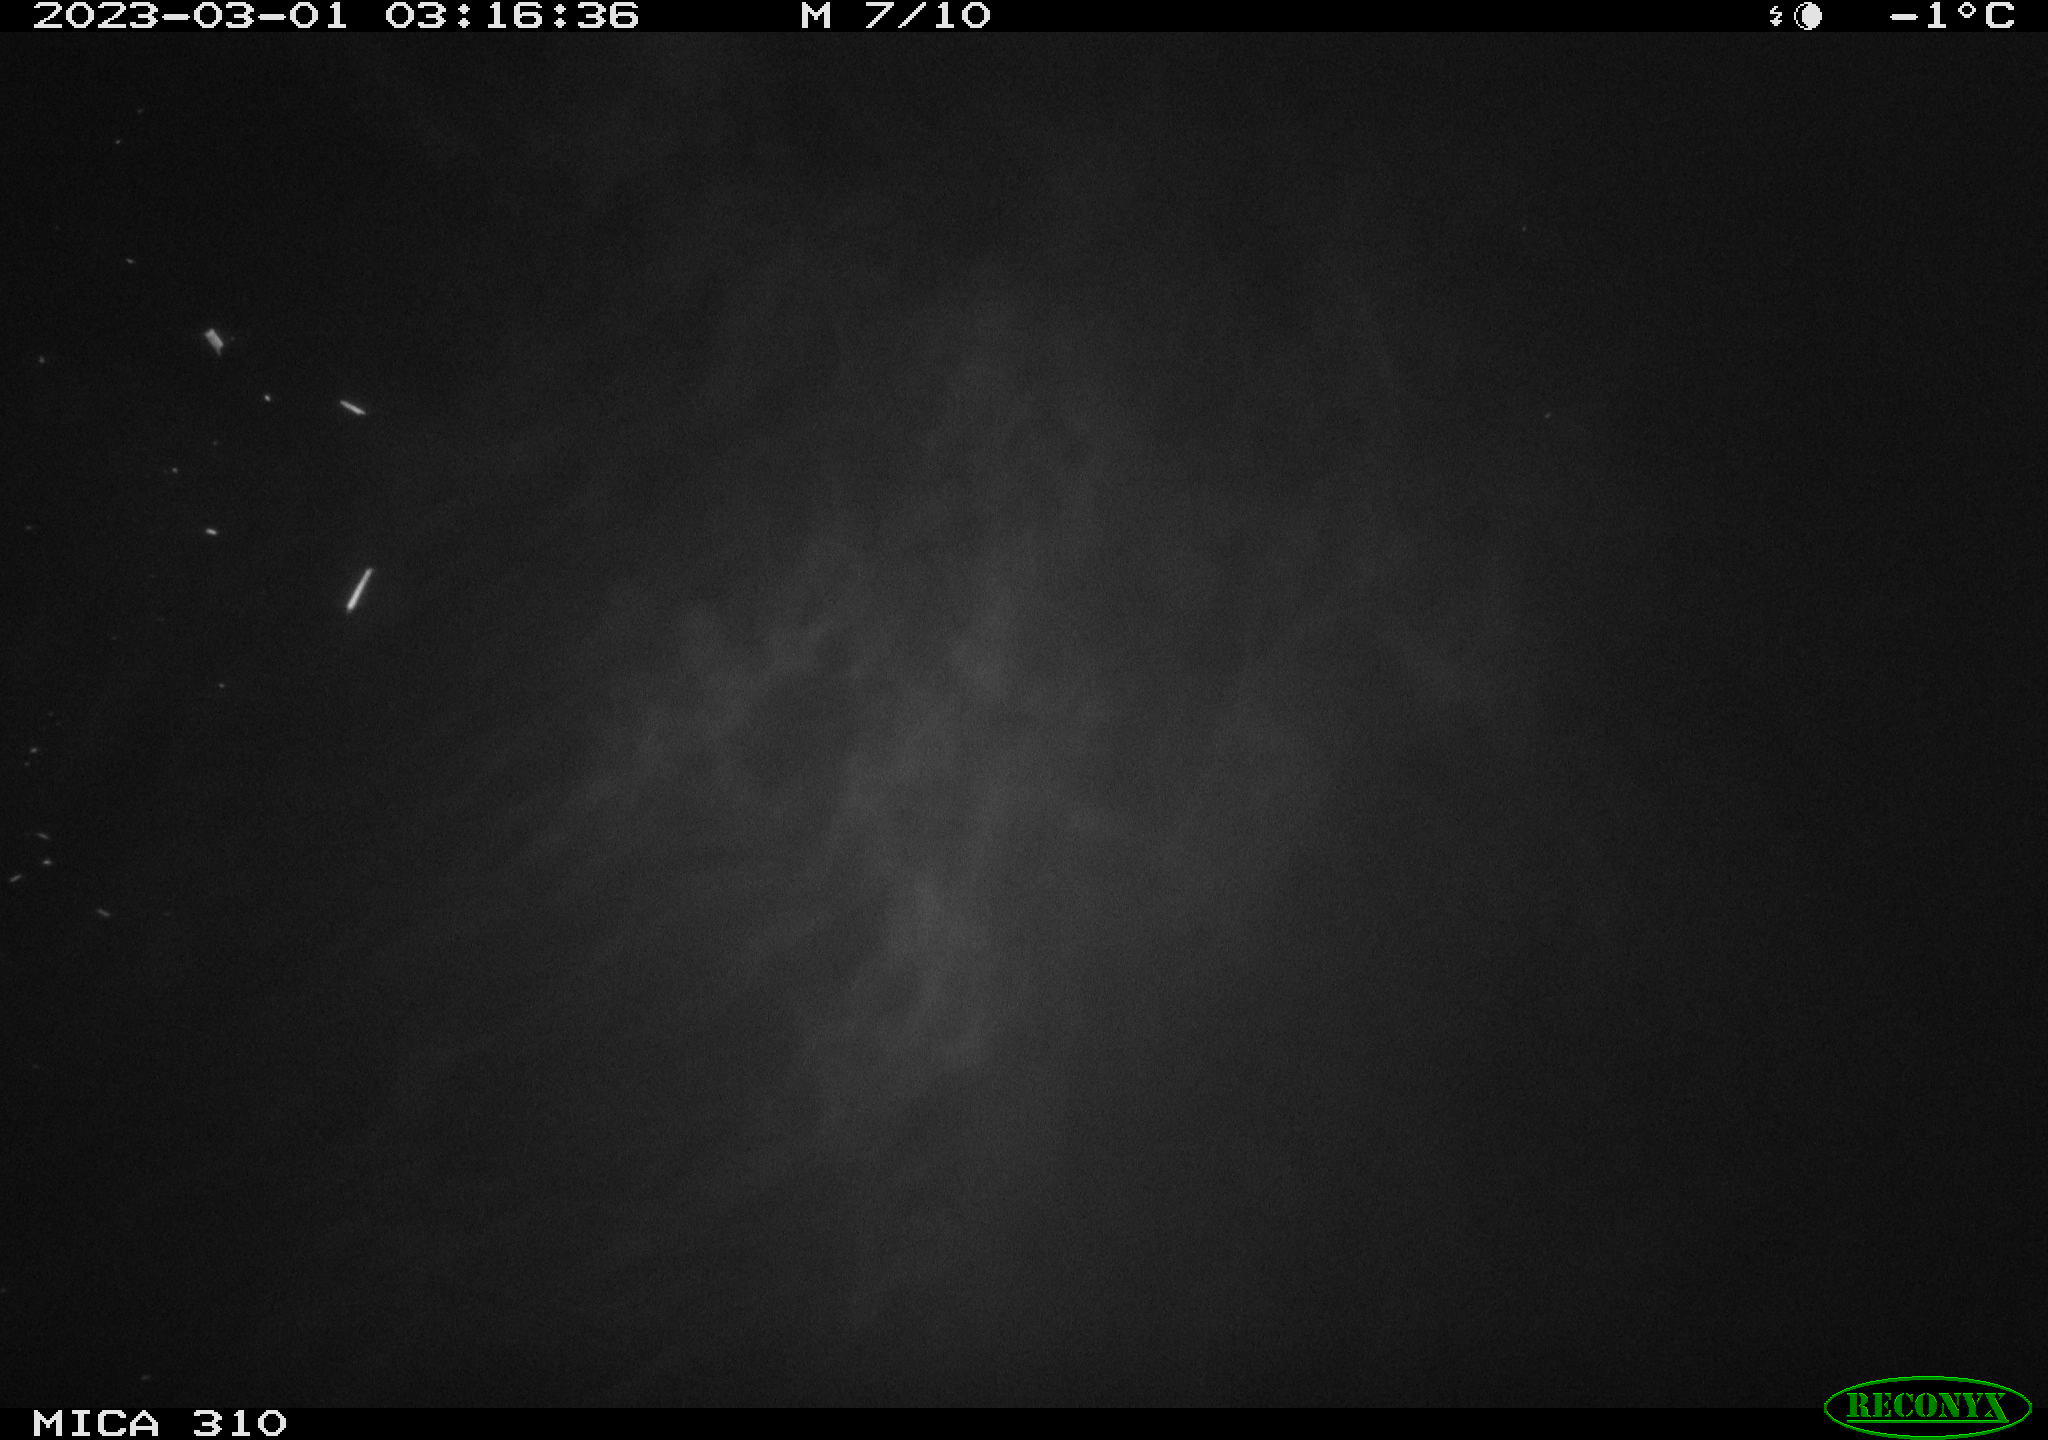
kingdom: Animalia
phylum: Chordata
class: Mammalia
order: Rodentia
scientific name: Rodentia
